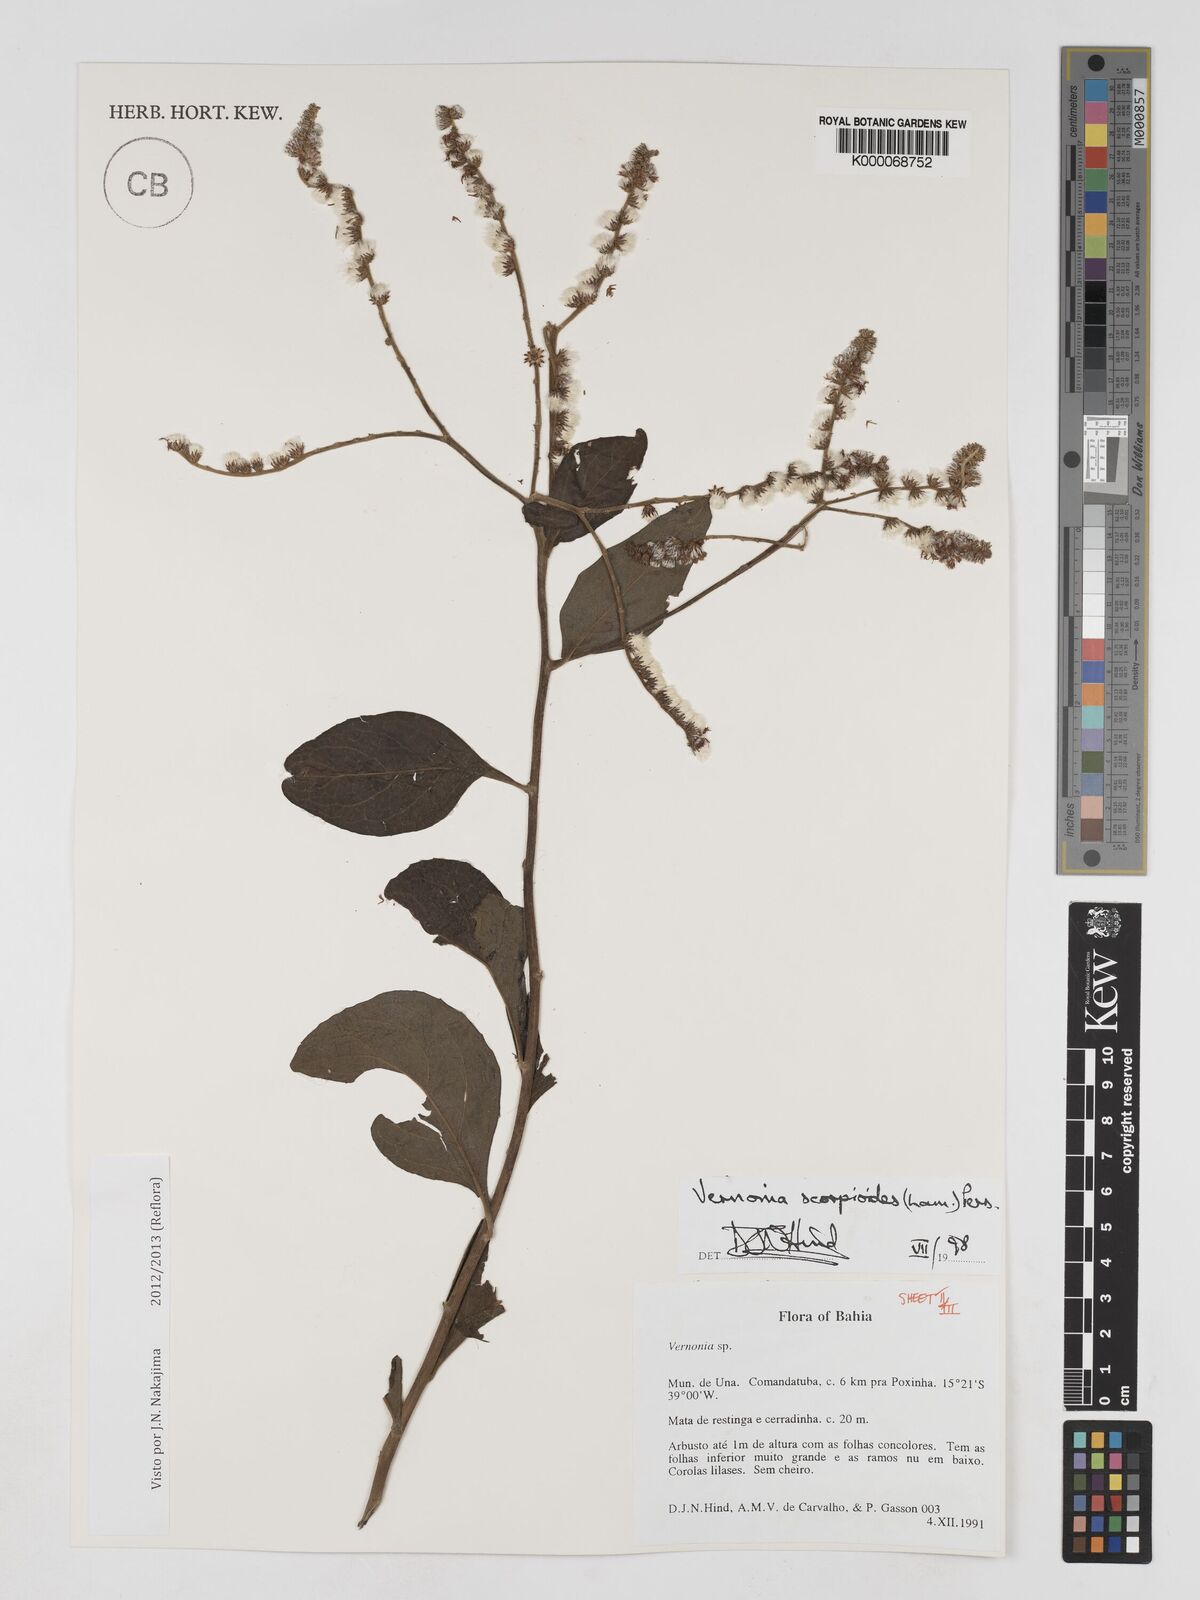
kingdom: Plantae
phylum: Tracheophyta
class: Magnoliopsida
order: Asterales
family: Asteraceae
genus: Cyrtocymura
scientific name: Cyrtocymura scorpioides
